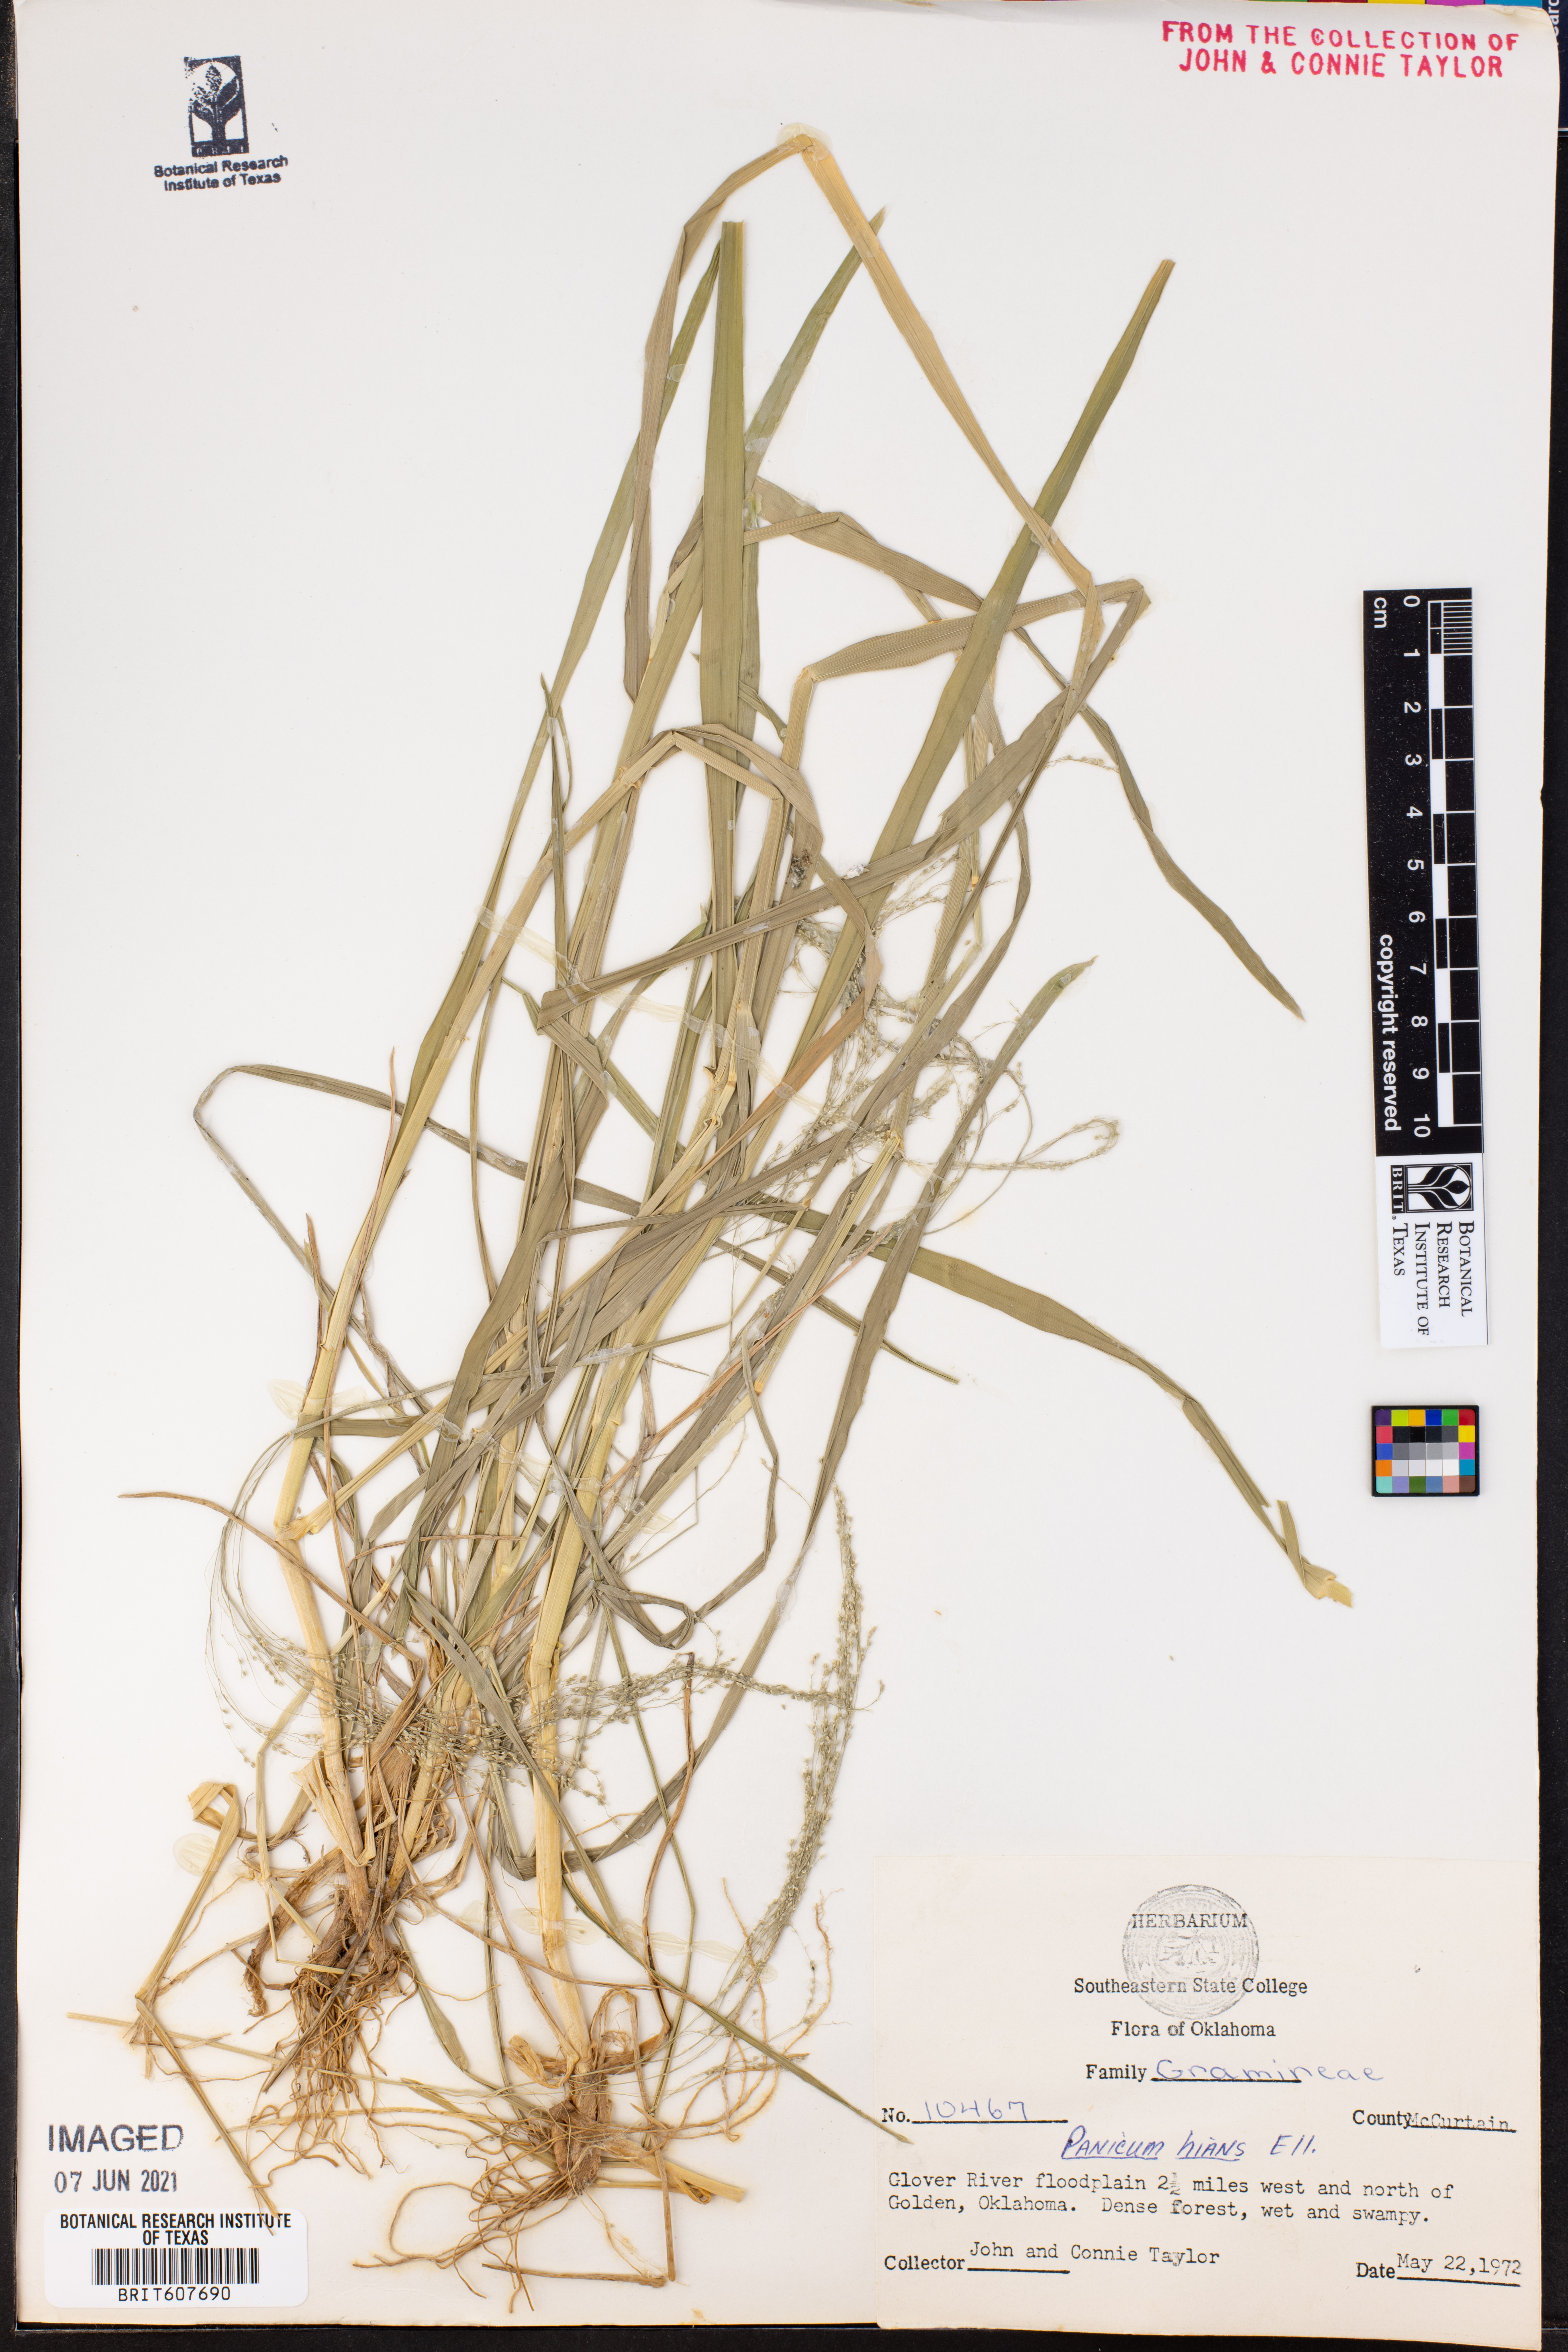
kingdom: Plantae
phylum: Tracheophyta
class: Liliopsida
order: Poales
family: Poaceae
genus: Coleataenia
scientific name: Coleataenia stenodes
